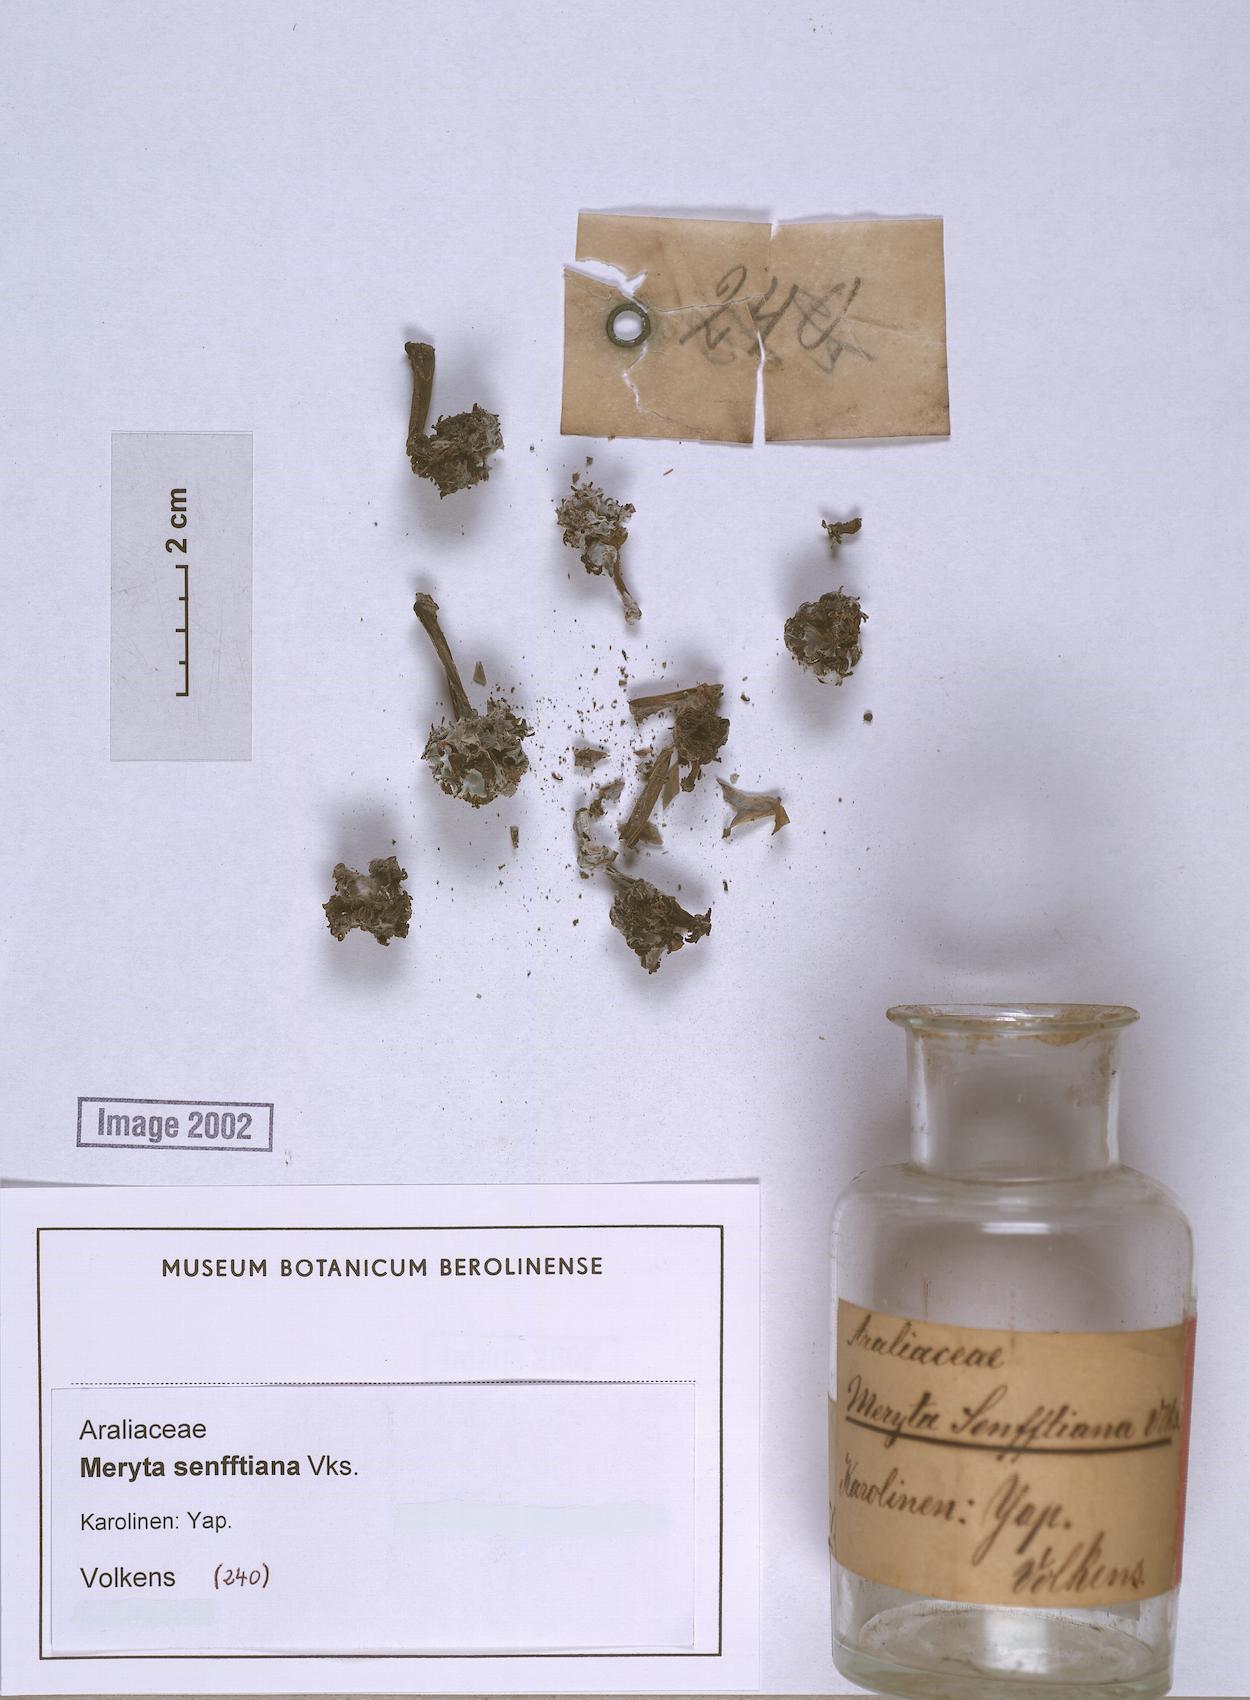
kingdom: Plantae
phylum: Tracheophyta
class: Magnoliopsida
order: Apiales
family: Araliaceae
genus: Meryta
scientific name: Meryta senfftiana
